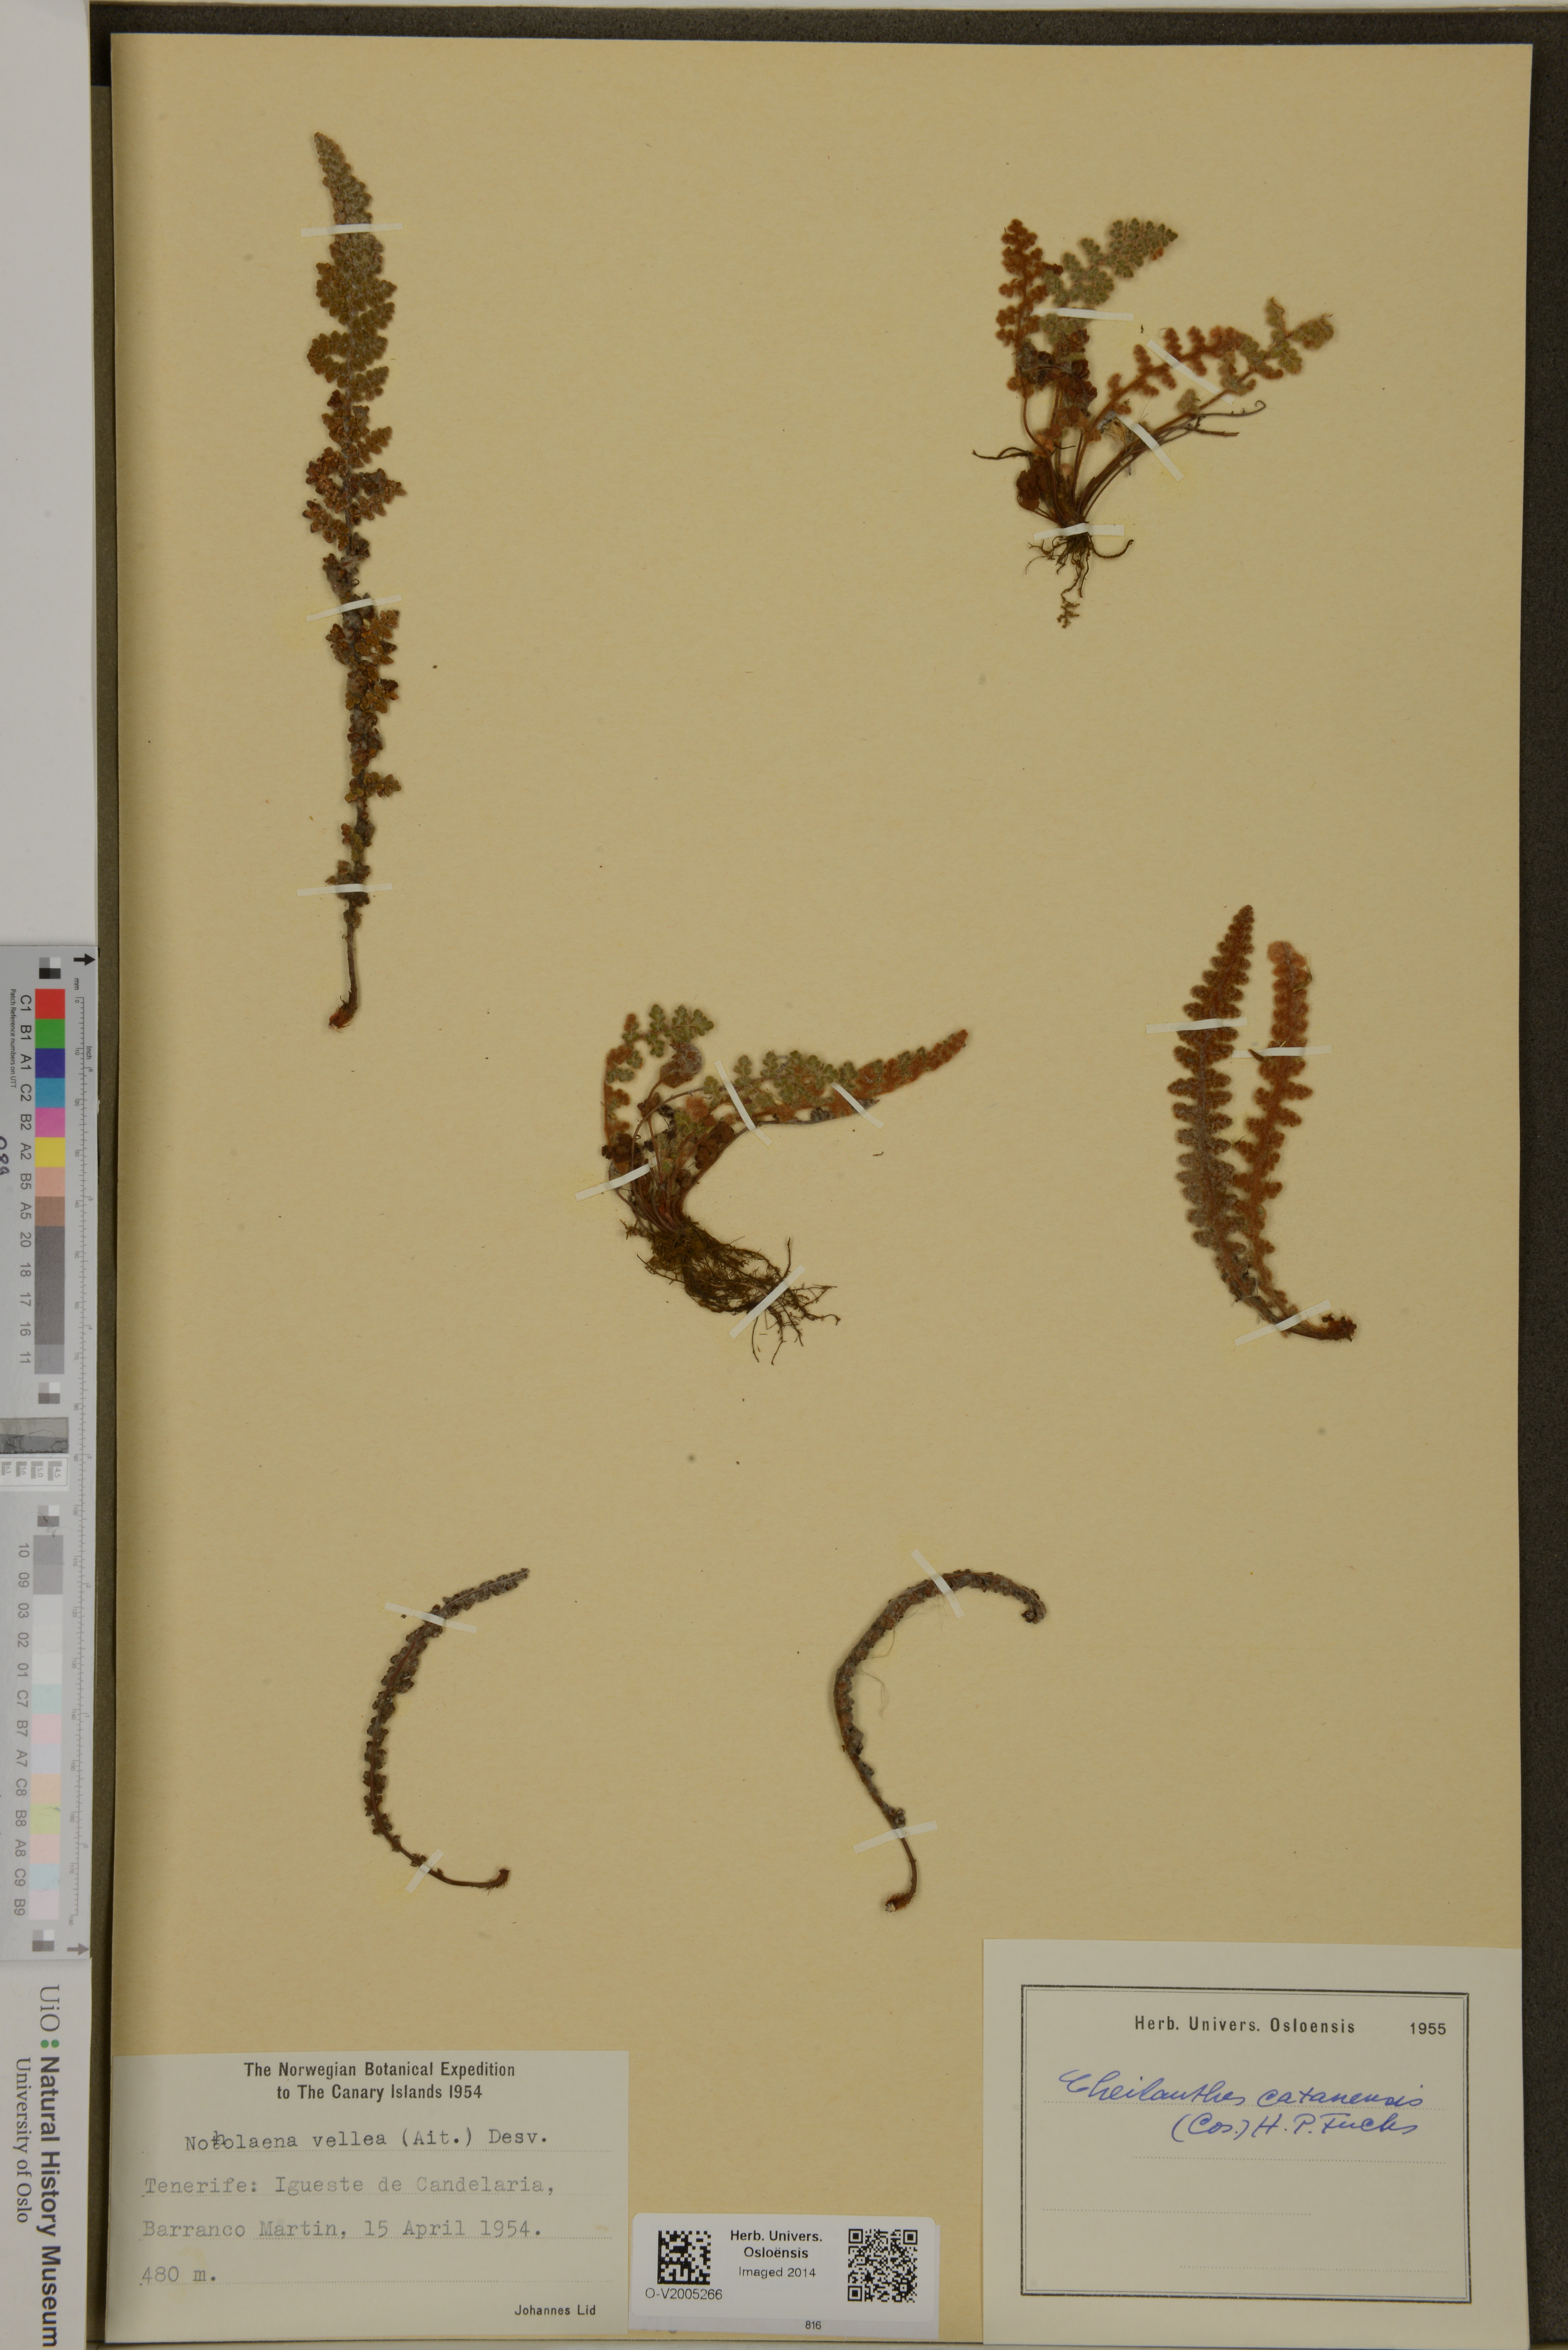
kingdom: Plantae
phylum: Tracheophyta
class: Polypodiopsida
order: Polypodiales
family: Pteridaceae
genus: Cosentinia
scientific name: Cosentinia vellea
